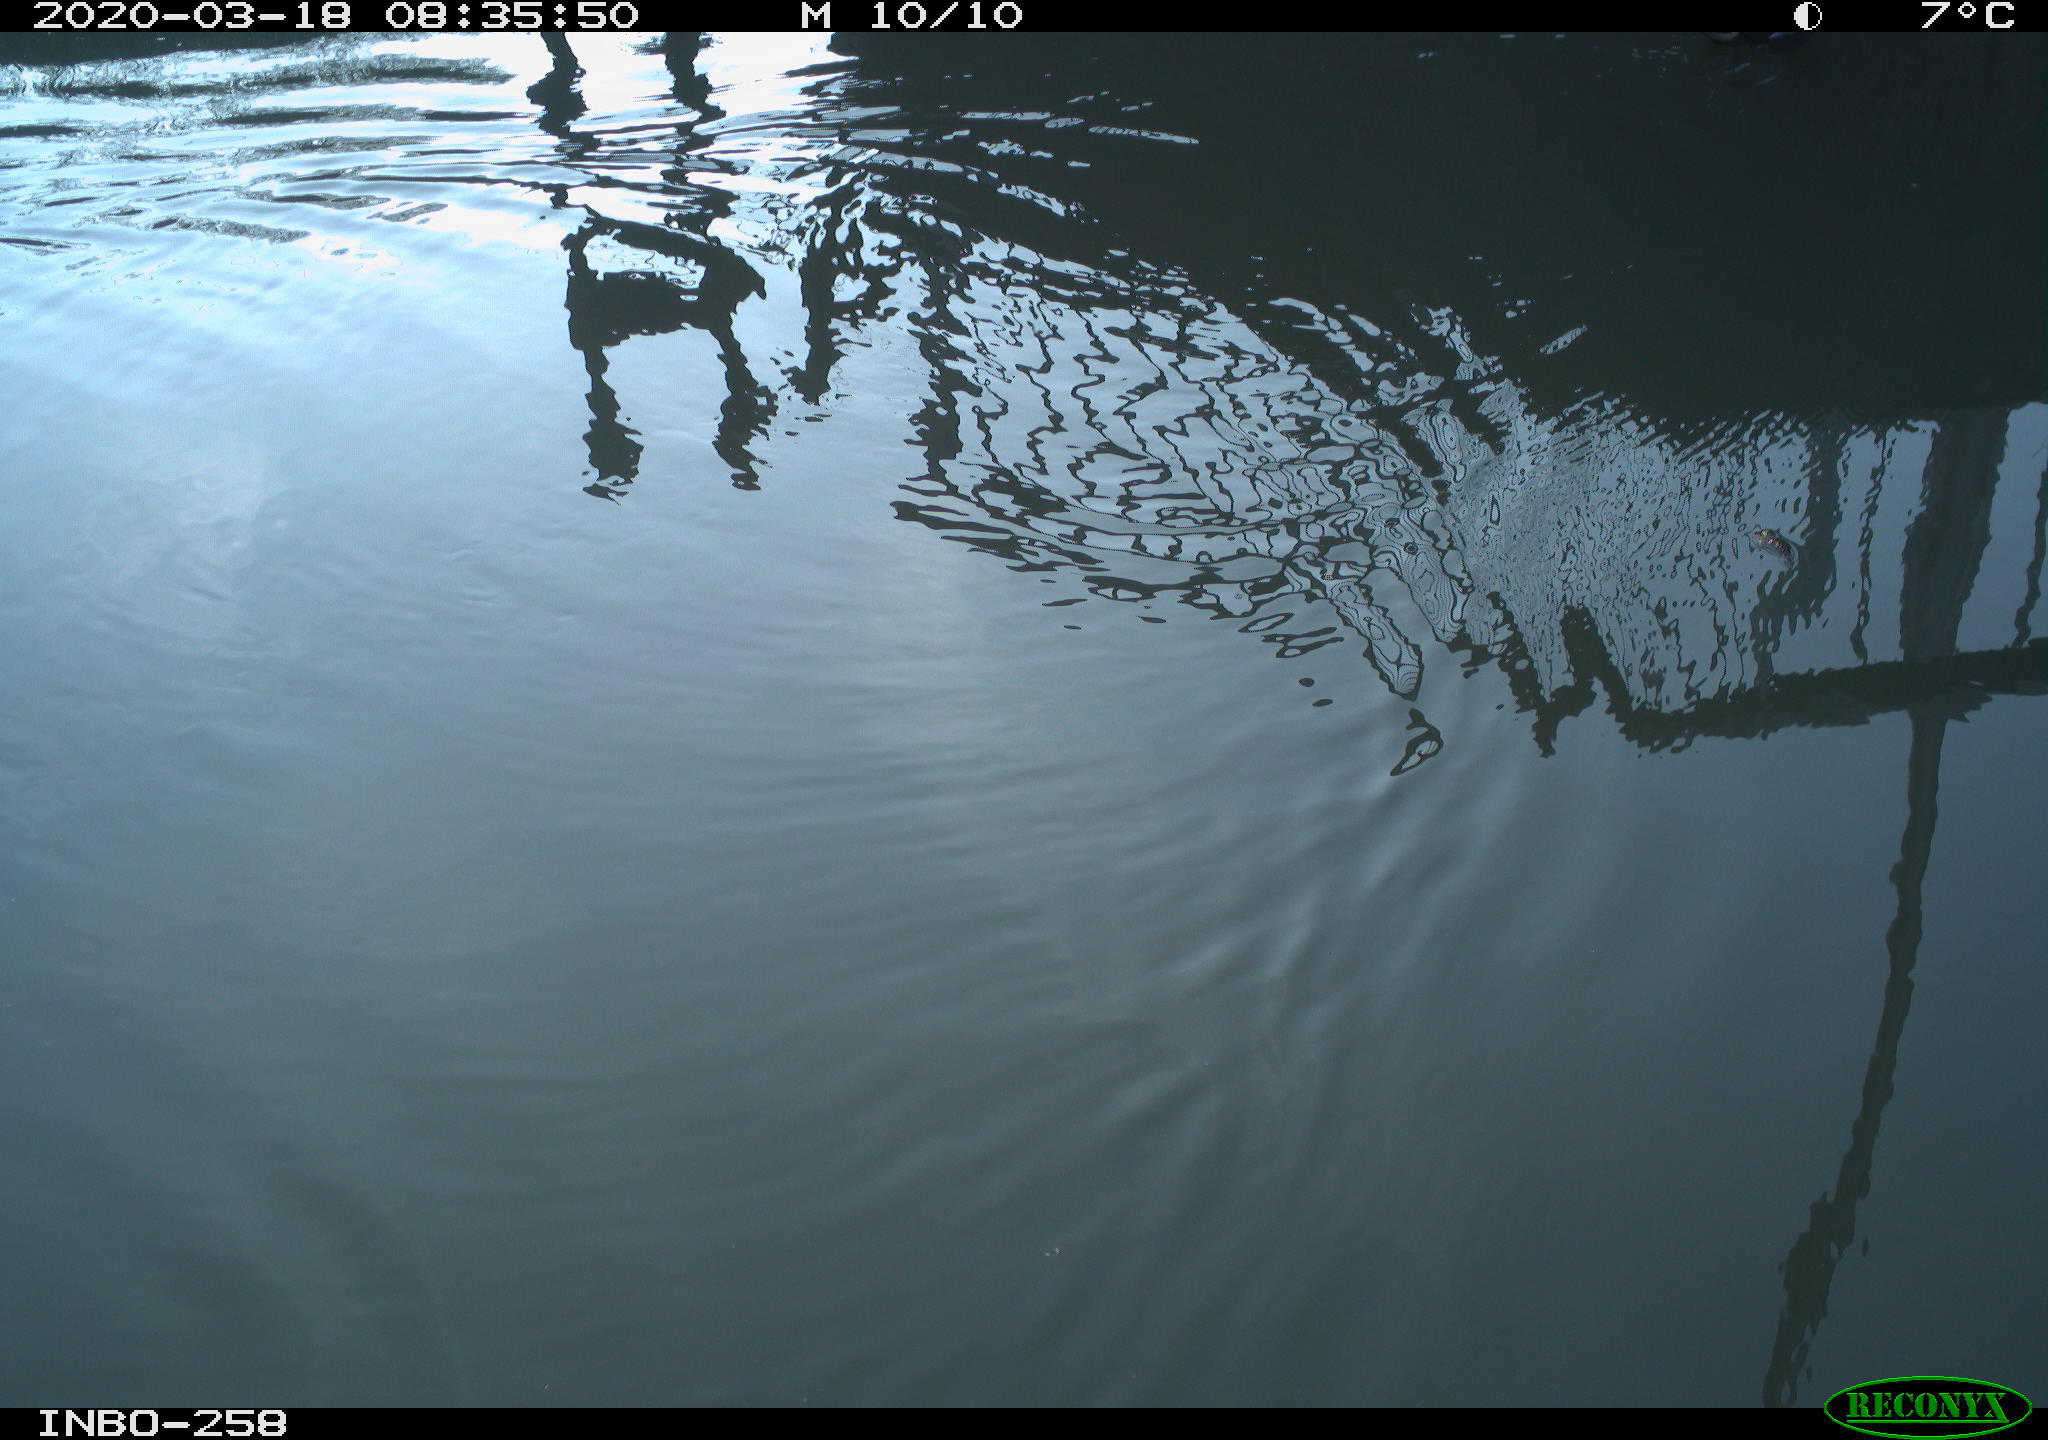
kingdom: Animalia
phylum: Chordata
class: Aves
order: Gruiformes
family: Rallidae
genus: Gallinula
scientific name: Gallinula chloropus
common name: Common moorhen
